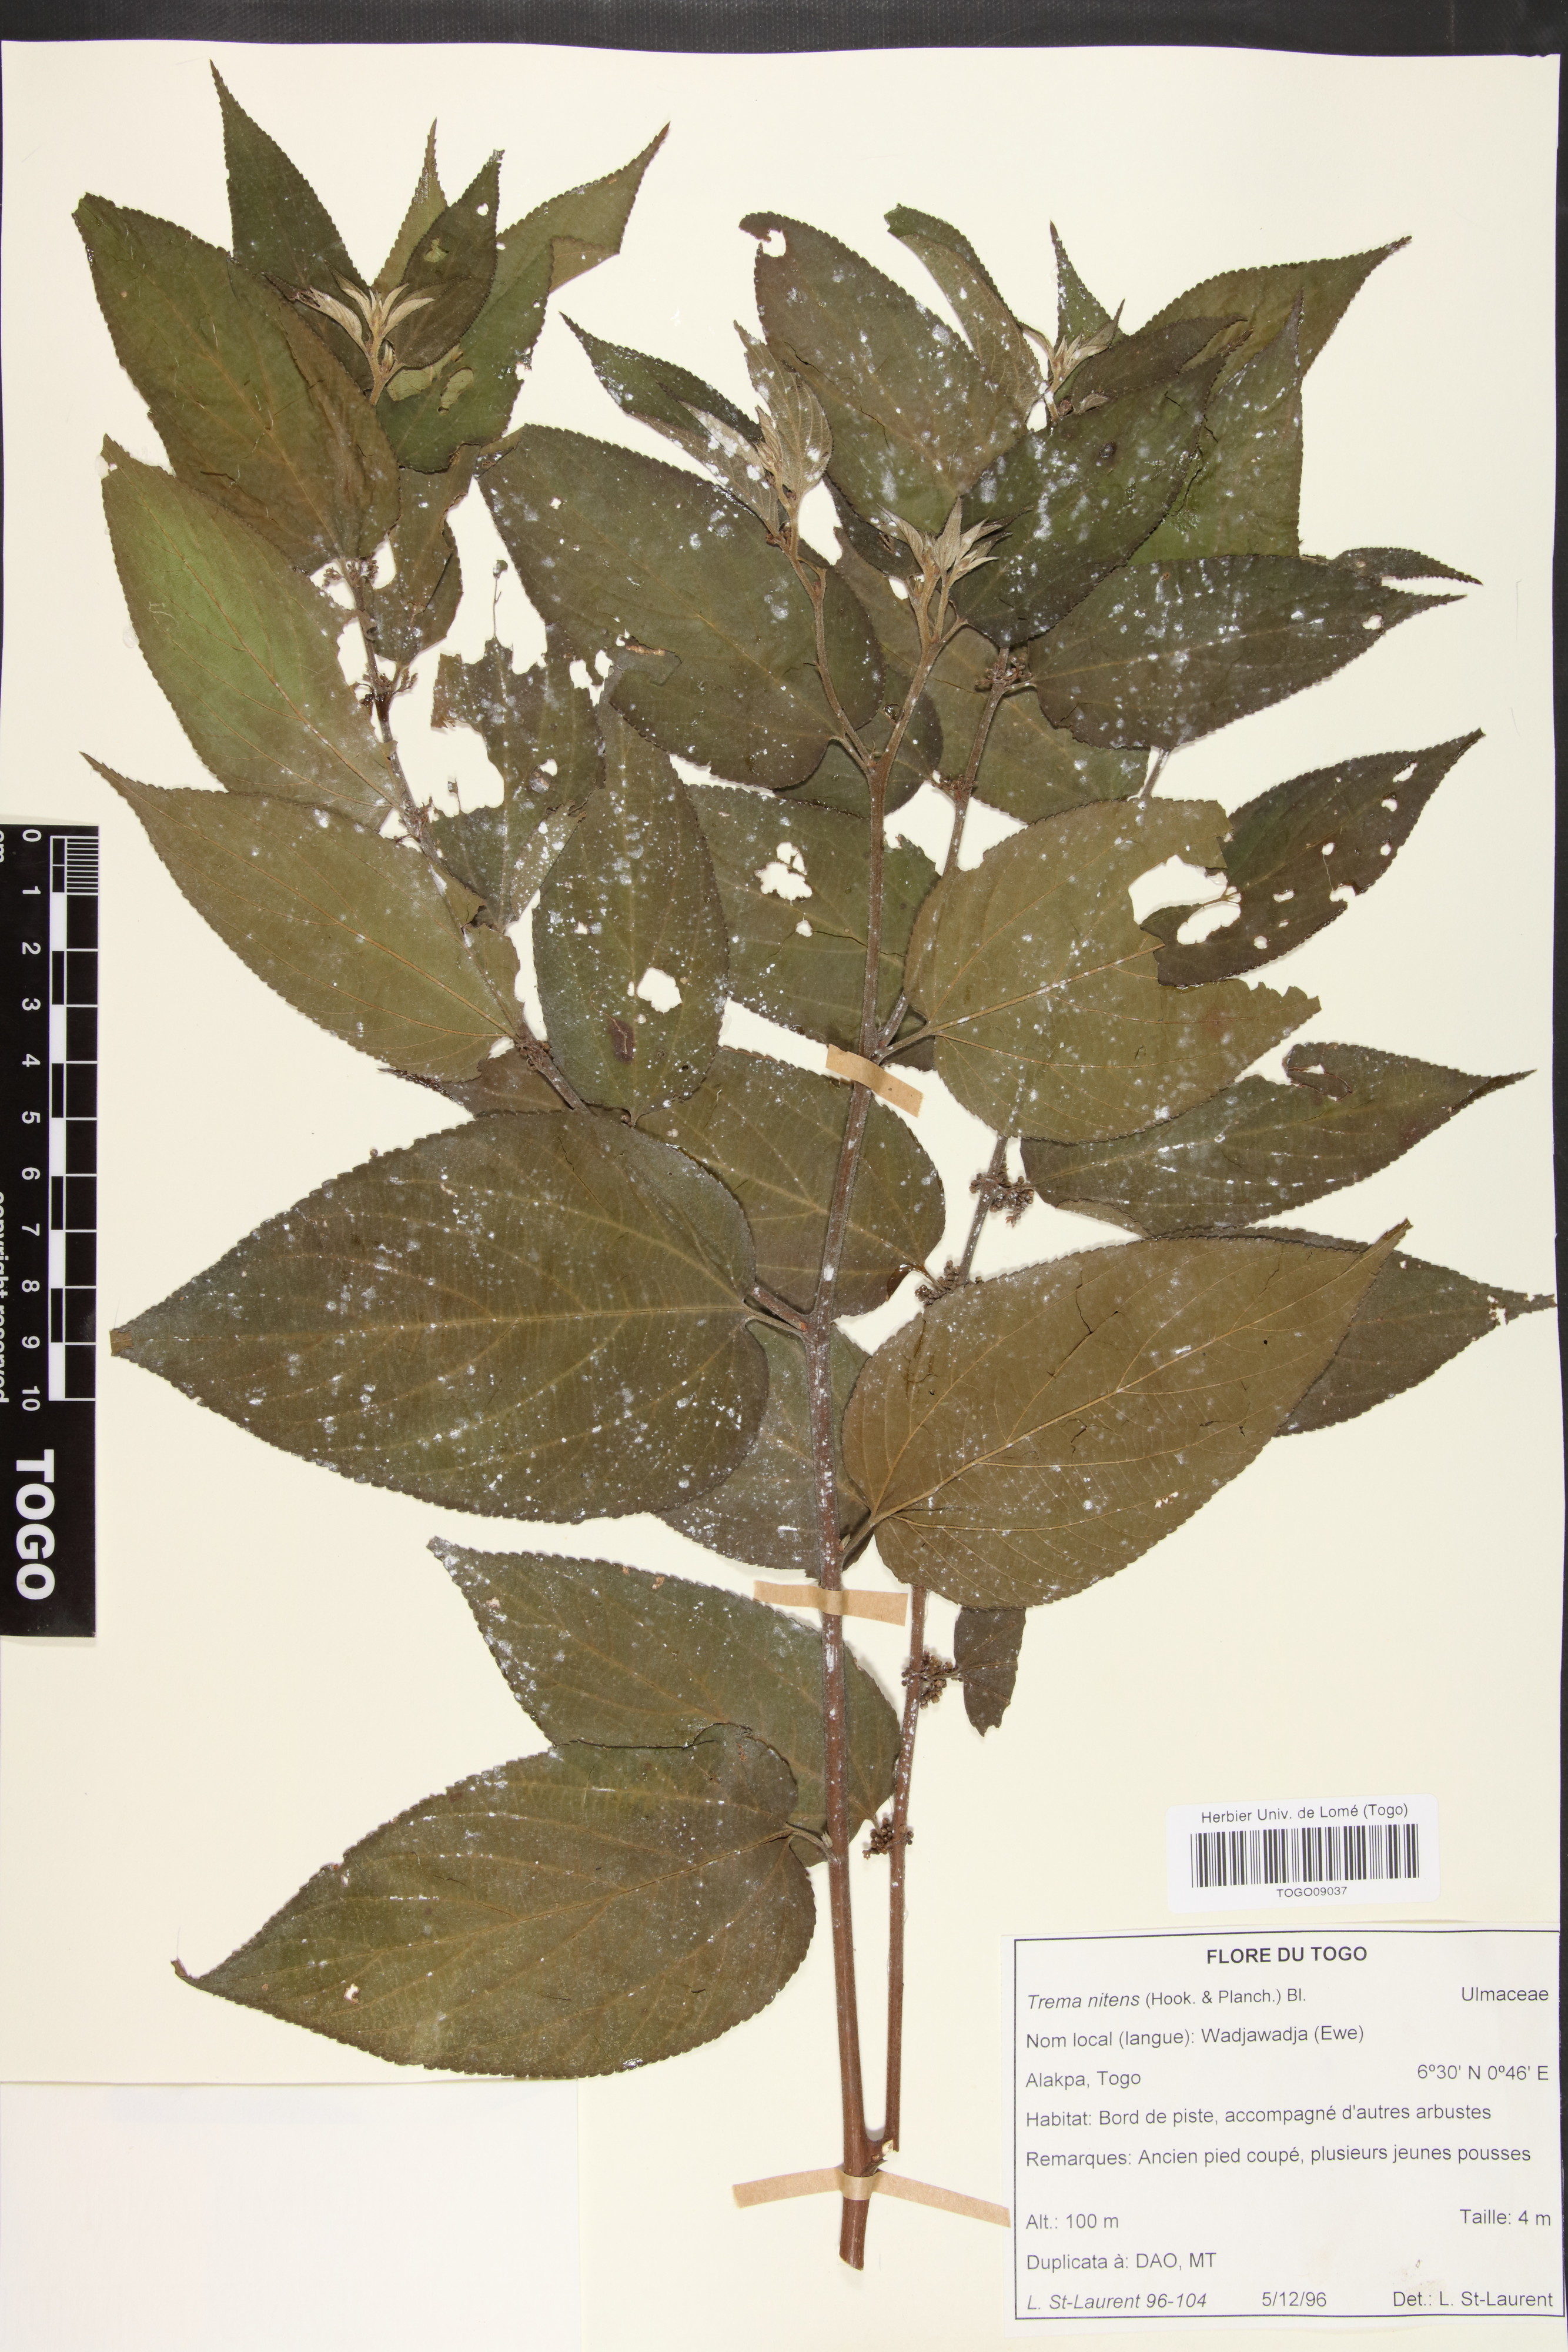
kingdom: Plantae
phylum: Tracheophyta
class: Magnoliopsida
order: Rosales
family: Cannabaceae
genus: Trema
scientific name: Trema orientale
